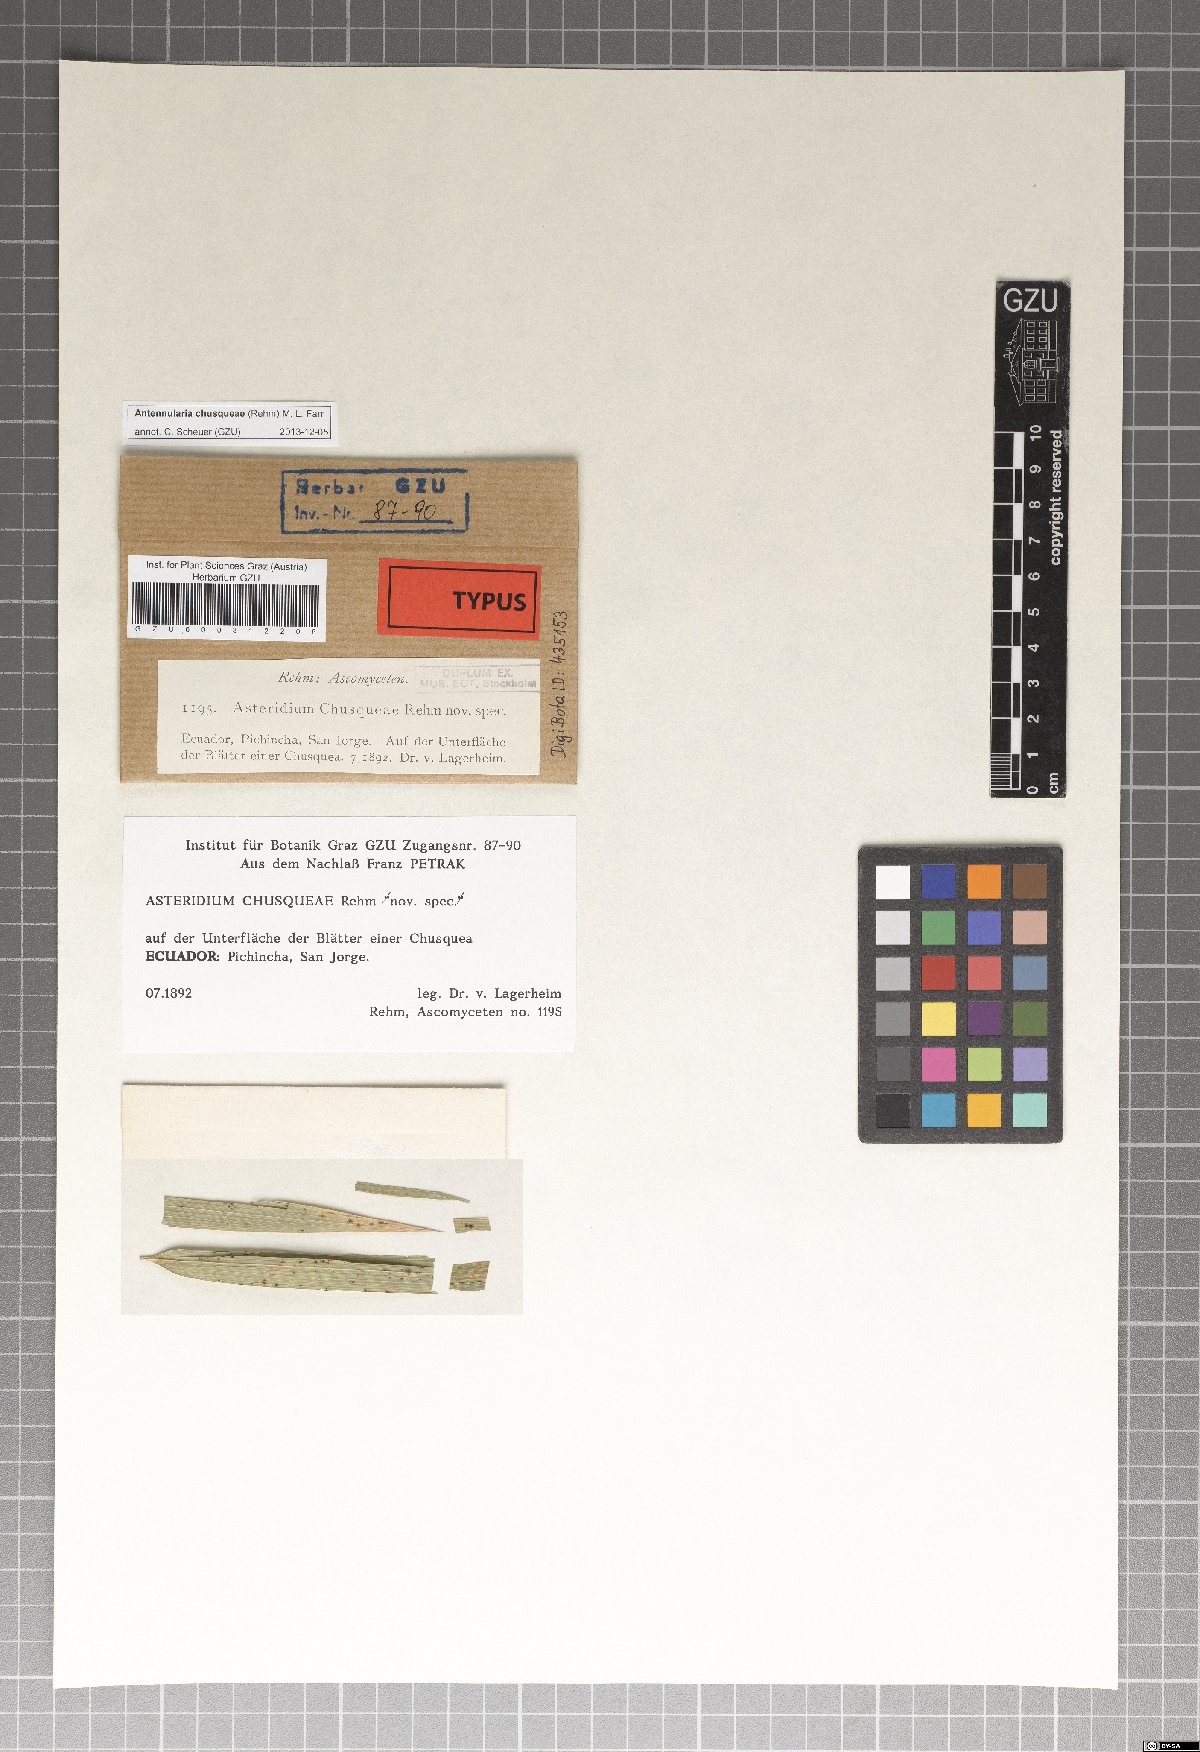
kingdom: Fungi
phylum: Ascomycota
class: Dothideomycetes
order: Capnodiales
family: Metacapnodiaceae
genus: Antennularia
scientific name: Antennularia chusqueae
